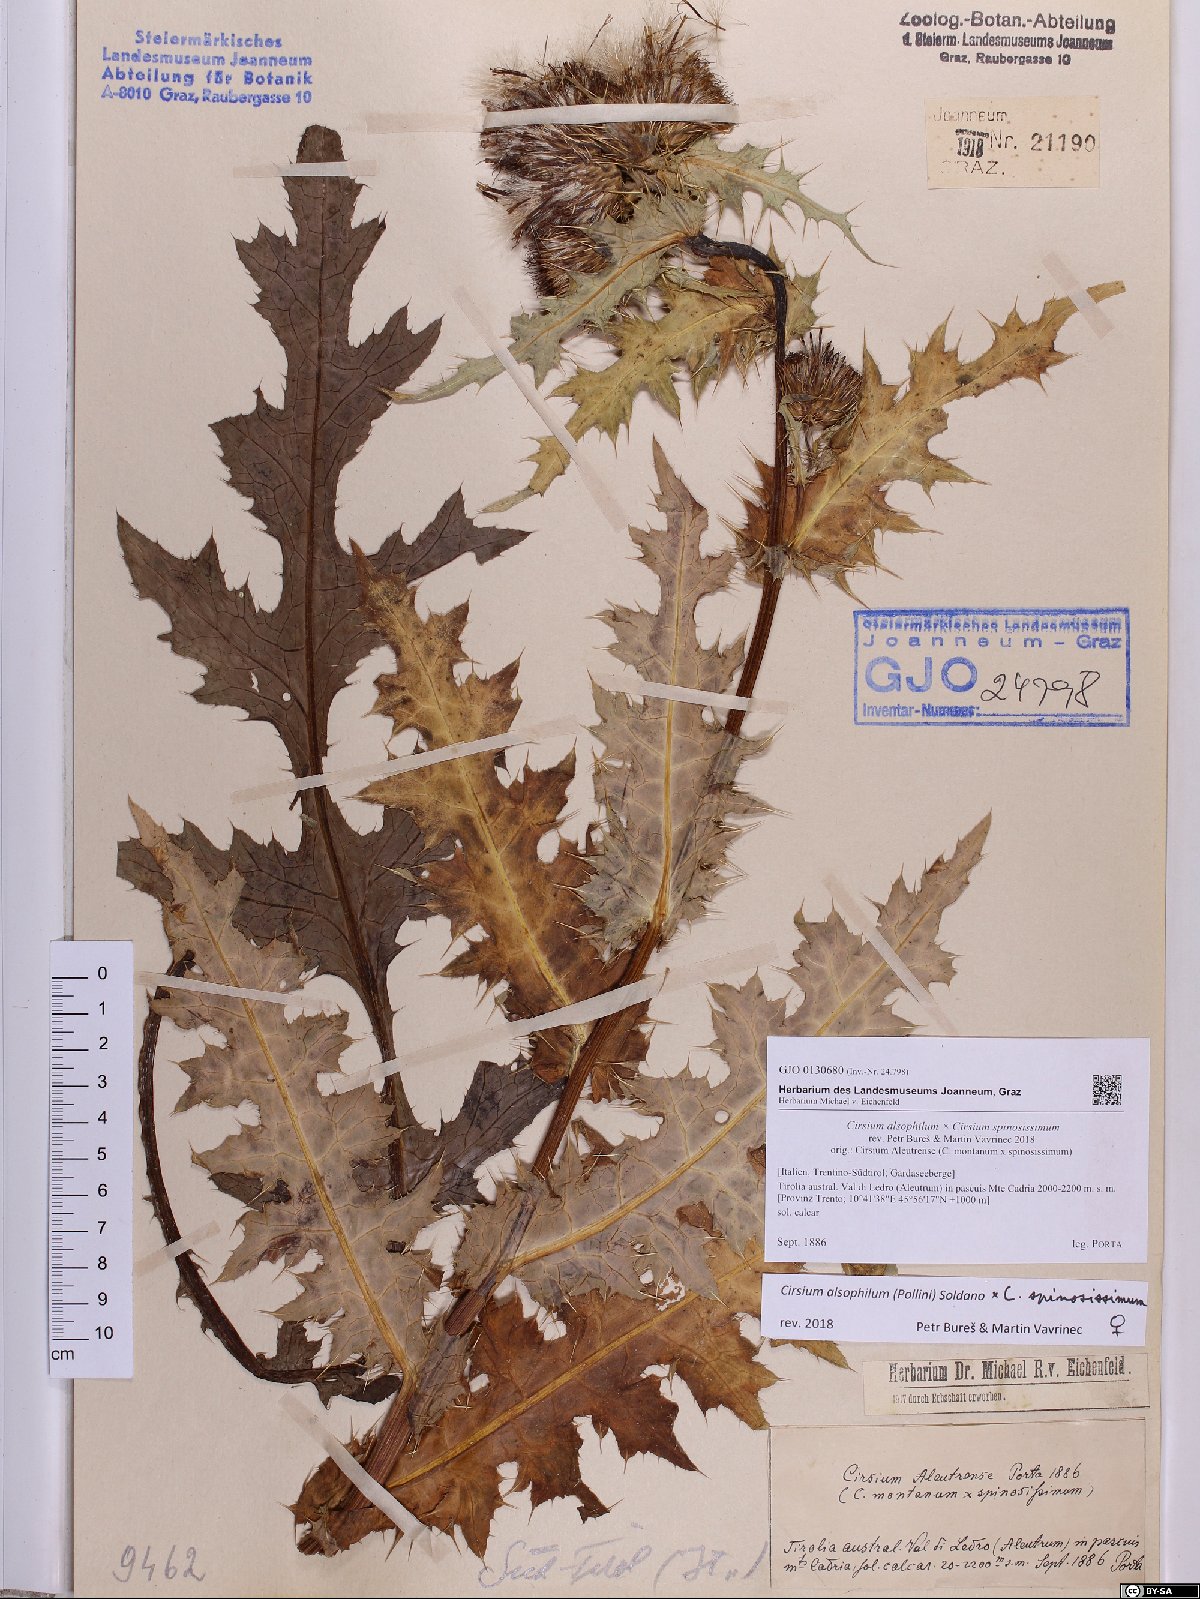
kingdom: Plantae
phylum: Tracheophyta
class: Magnoliopsida
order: Asterales
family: Asteraceae
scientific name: Asteraceae
